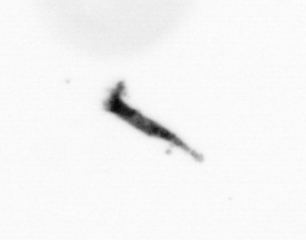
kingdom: Animalia
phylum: Arthropoda
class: Copepoda
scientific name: Copepoda
